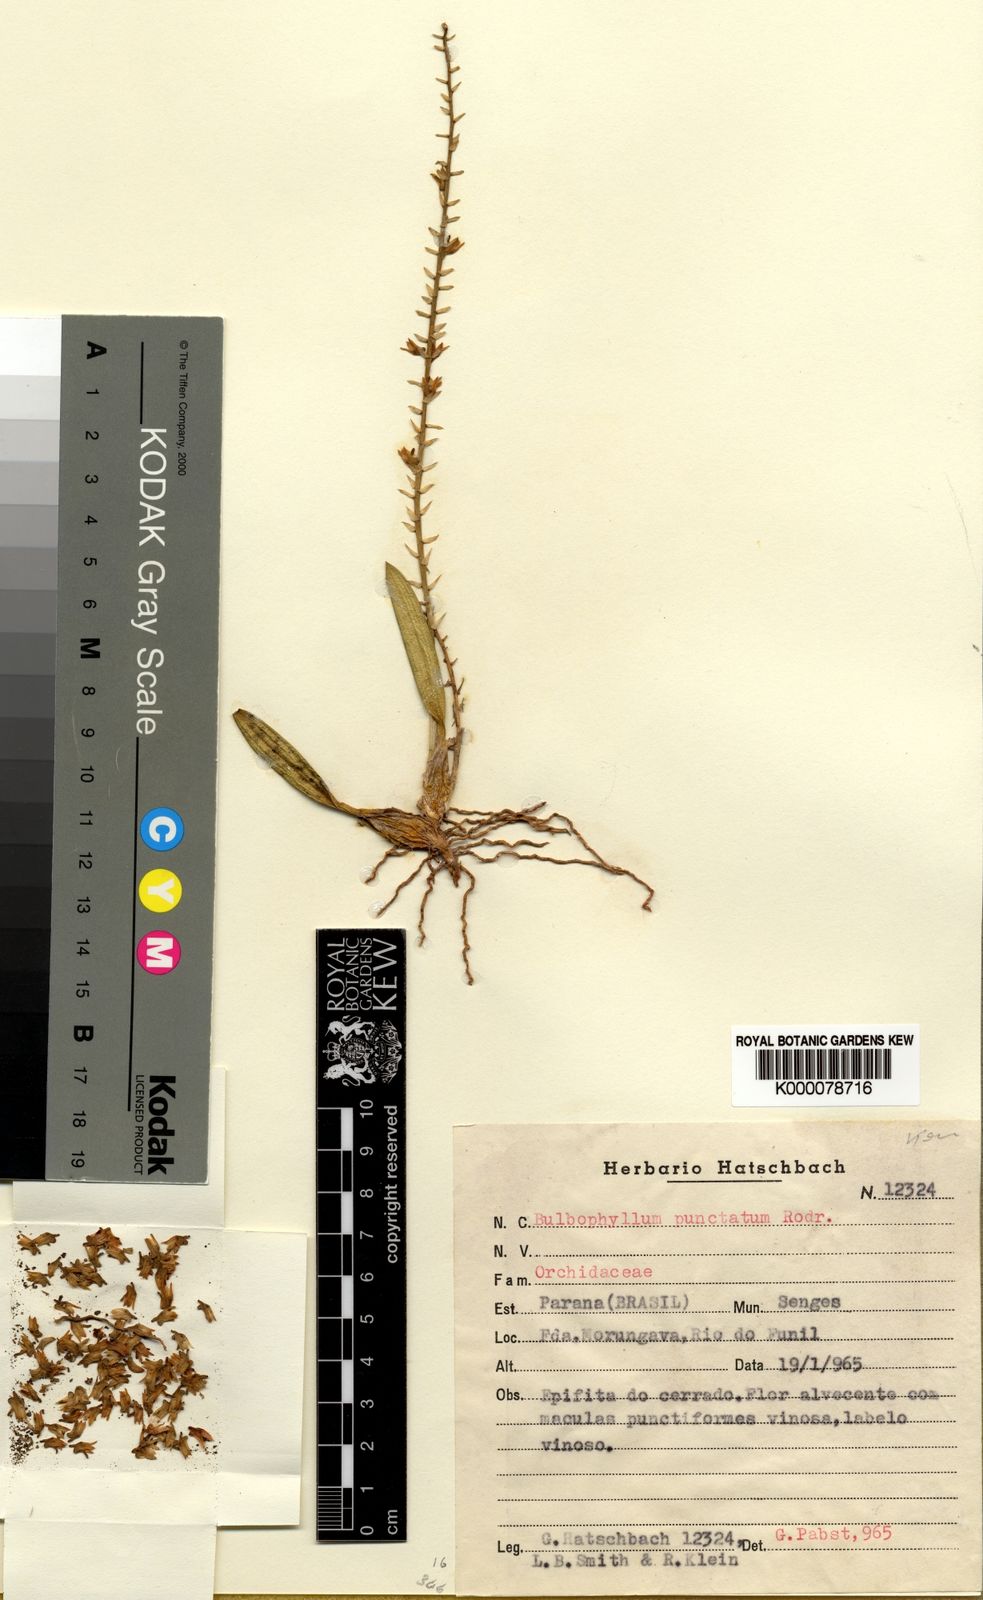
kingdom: Plantae
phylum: Tracheophyta
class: Liliopsida
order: Asparagales
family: Orchidaceae
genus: Bulbophyllum
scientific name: Bulbophyllum punctatum
